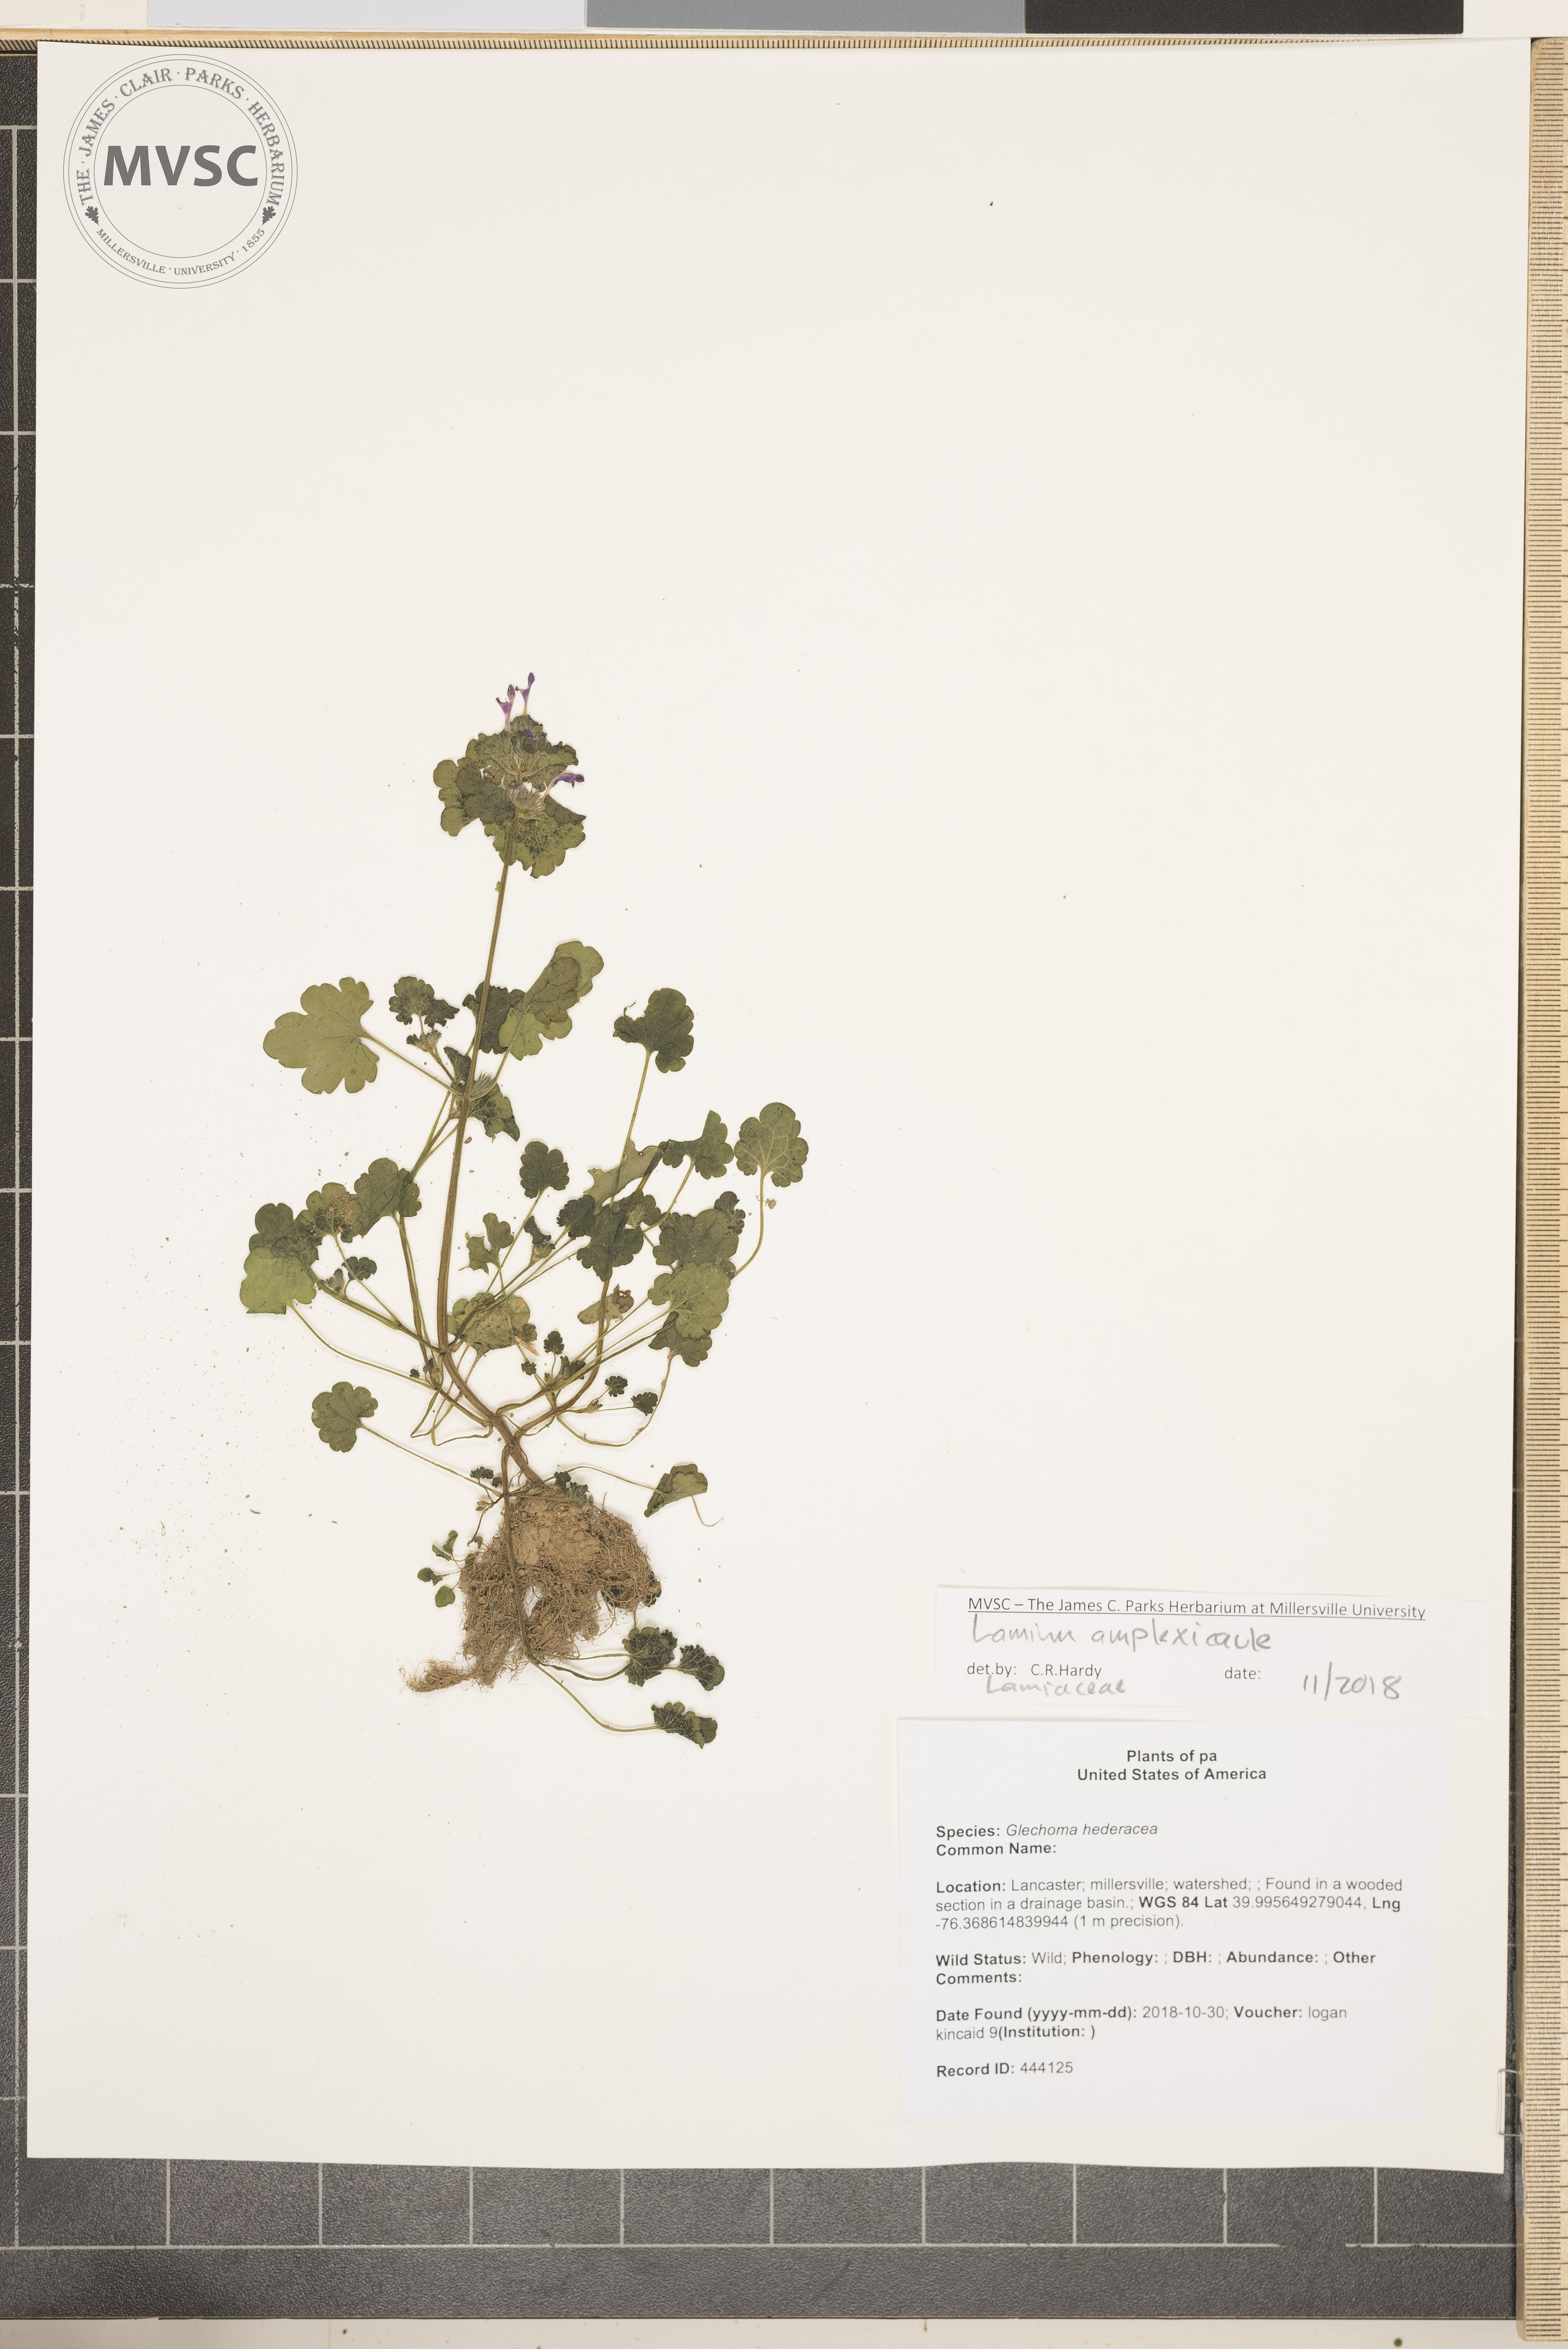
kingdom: Plantae
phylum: Tracheophyta
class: Magnoliopsida
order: Lamiales
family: Lamiaceae
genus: Lamium
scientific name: Lamium amplexicaule
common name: henbit
